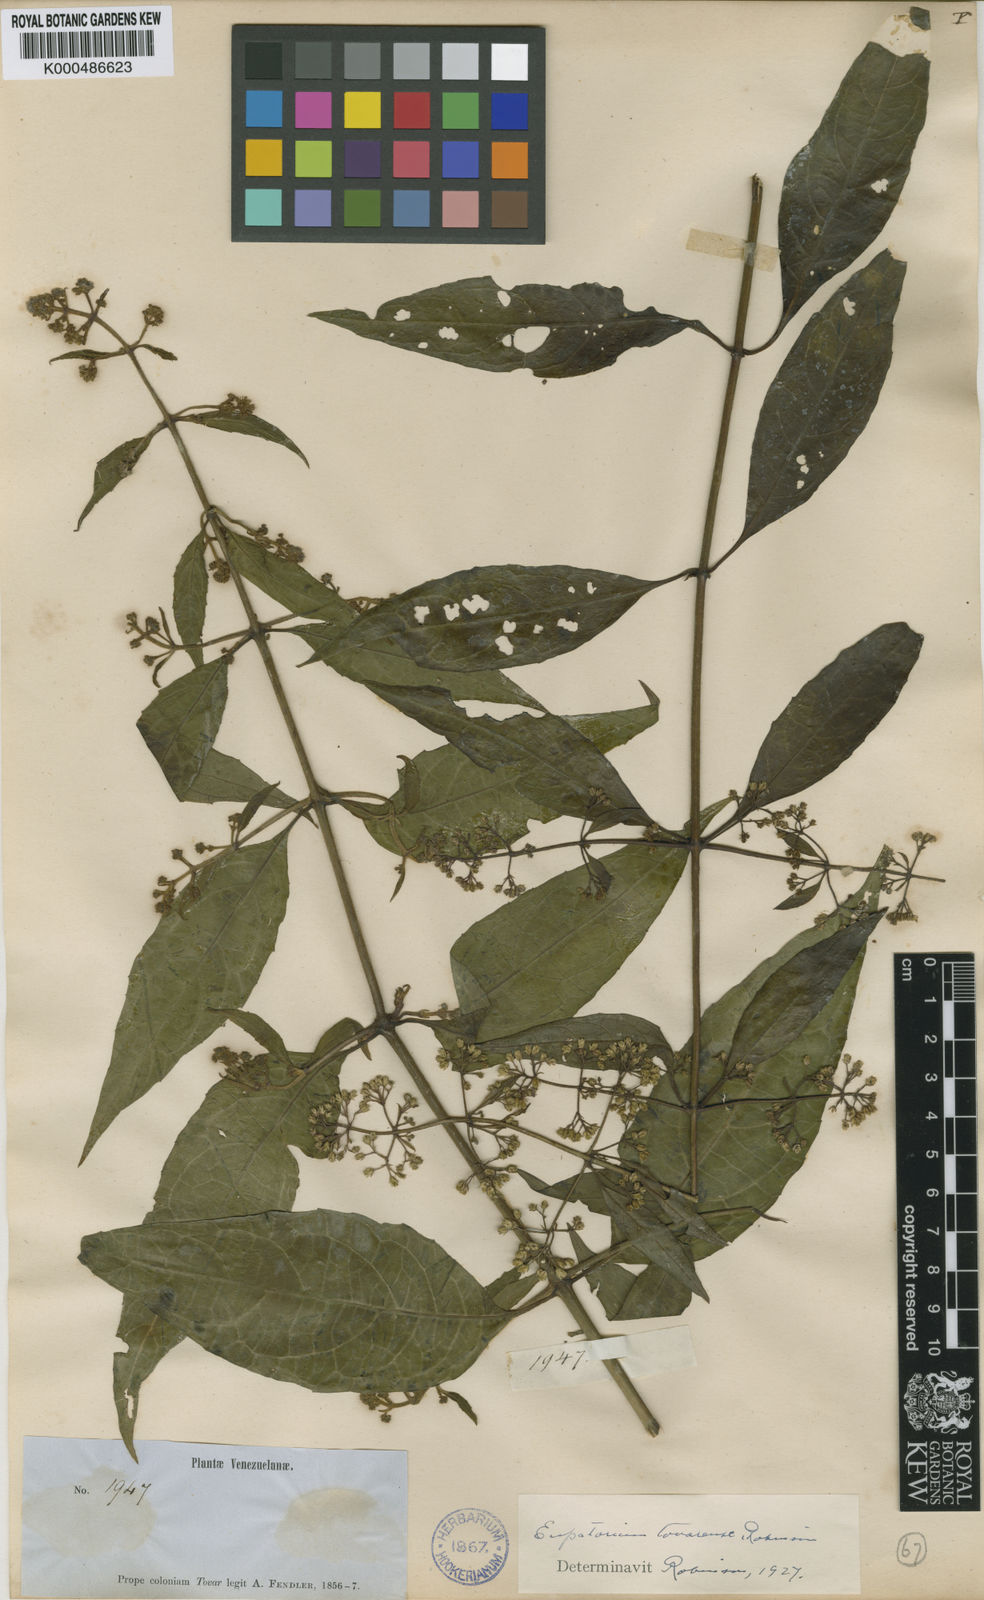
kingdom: Plantae
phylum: Tracheophyta
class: Magnoliopsida
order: Asterales
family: Asteraceae
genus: Ayapana
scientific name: Ayapana tovarensis
